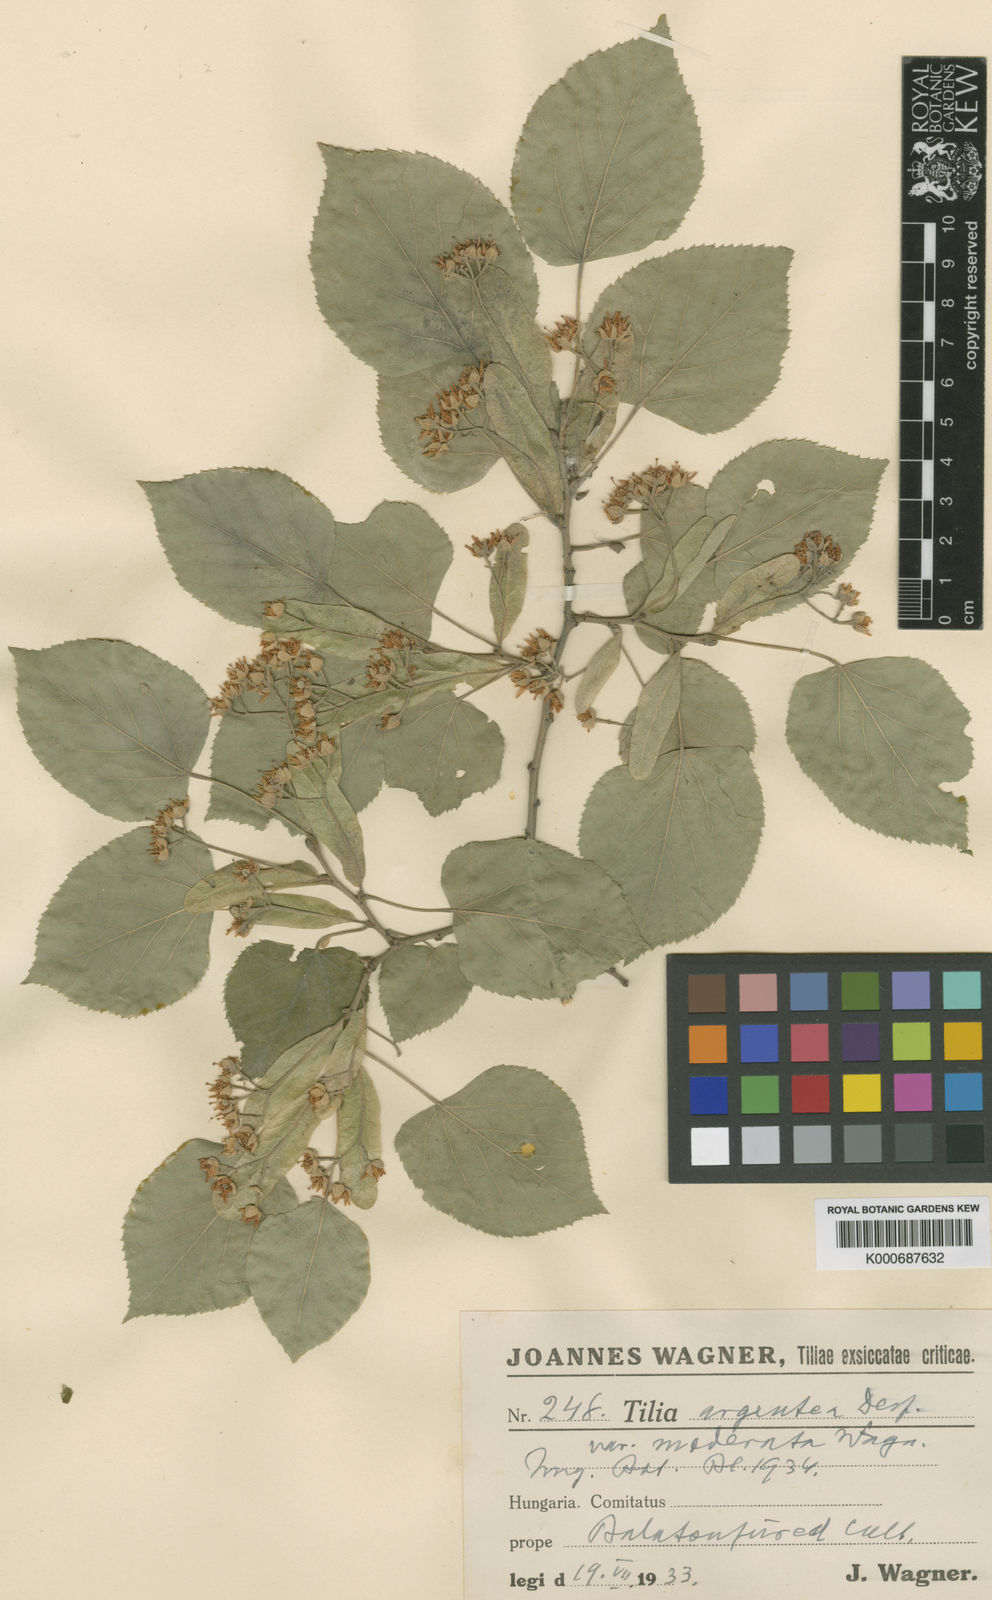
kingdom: Plantae
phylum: Tracheophyta
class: Magnoliopsida
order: Malvales
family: Malvaceae
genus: Tilia
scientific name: Tilia tomentosa
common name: Silver lime
